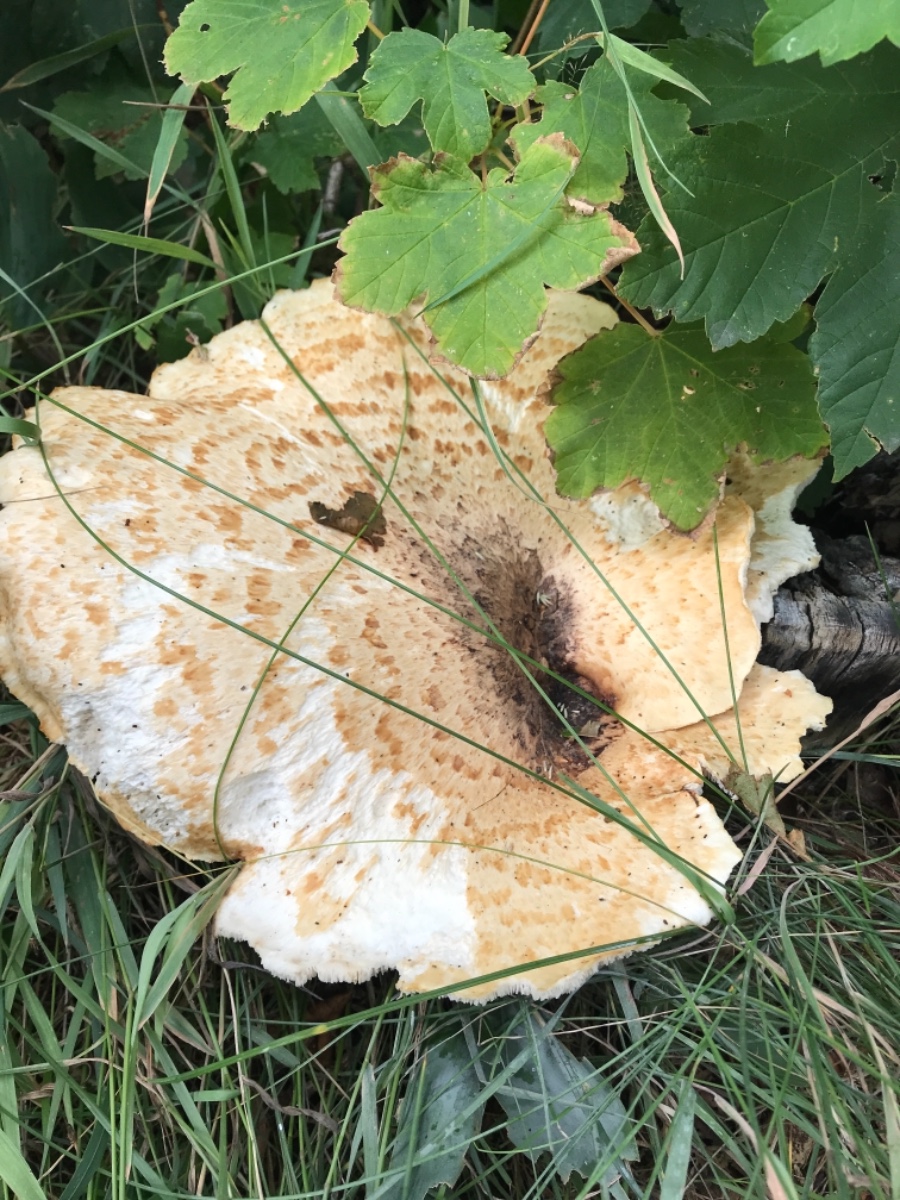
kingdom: Fungi
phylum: Basidiomycota
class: Agaricomycetes
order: Polyporales
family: Polyporaceae
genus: Cerioporus
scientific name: Cerioporus squamosus
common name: skællet stilkporesvamp
